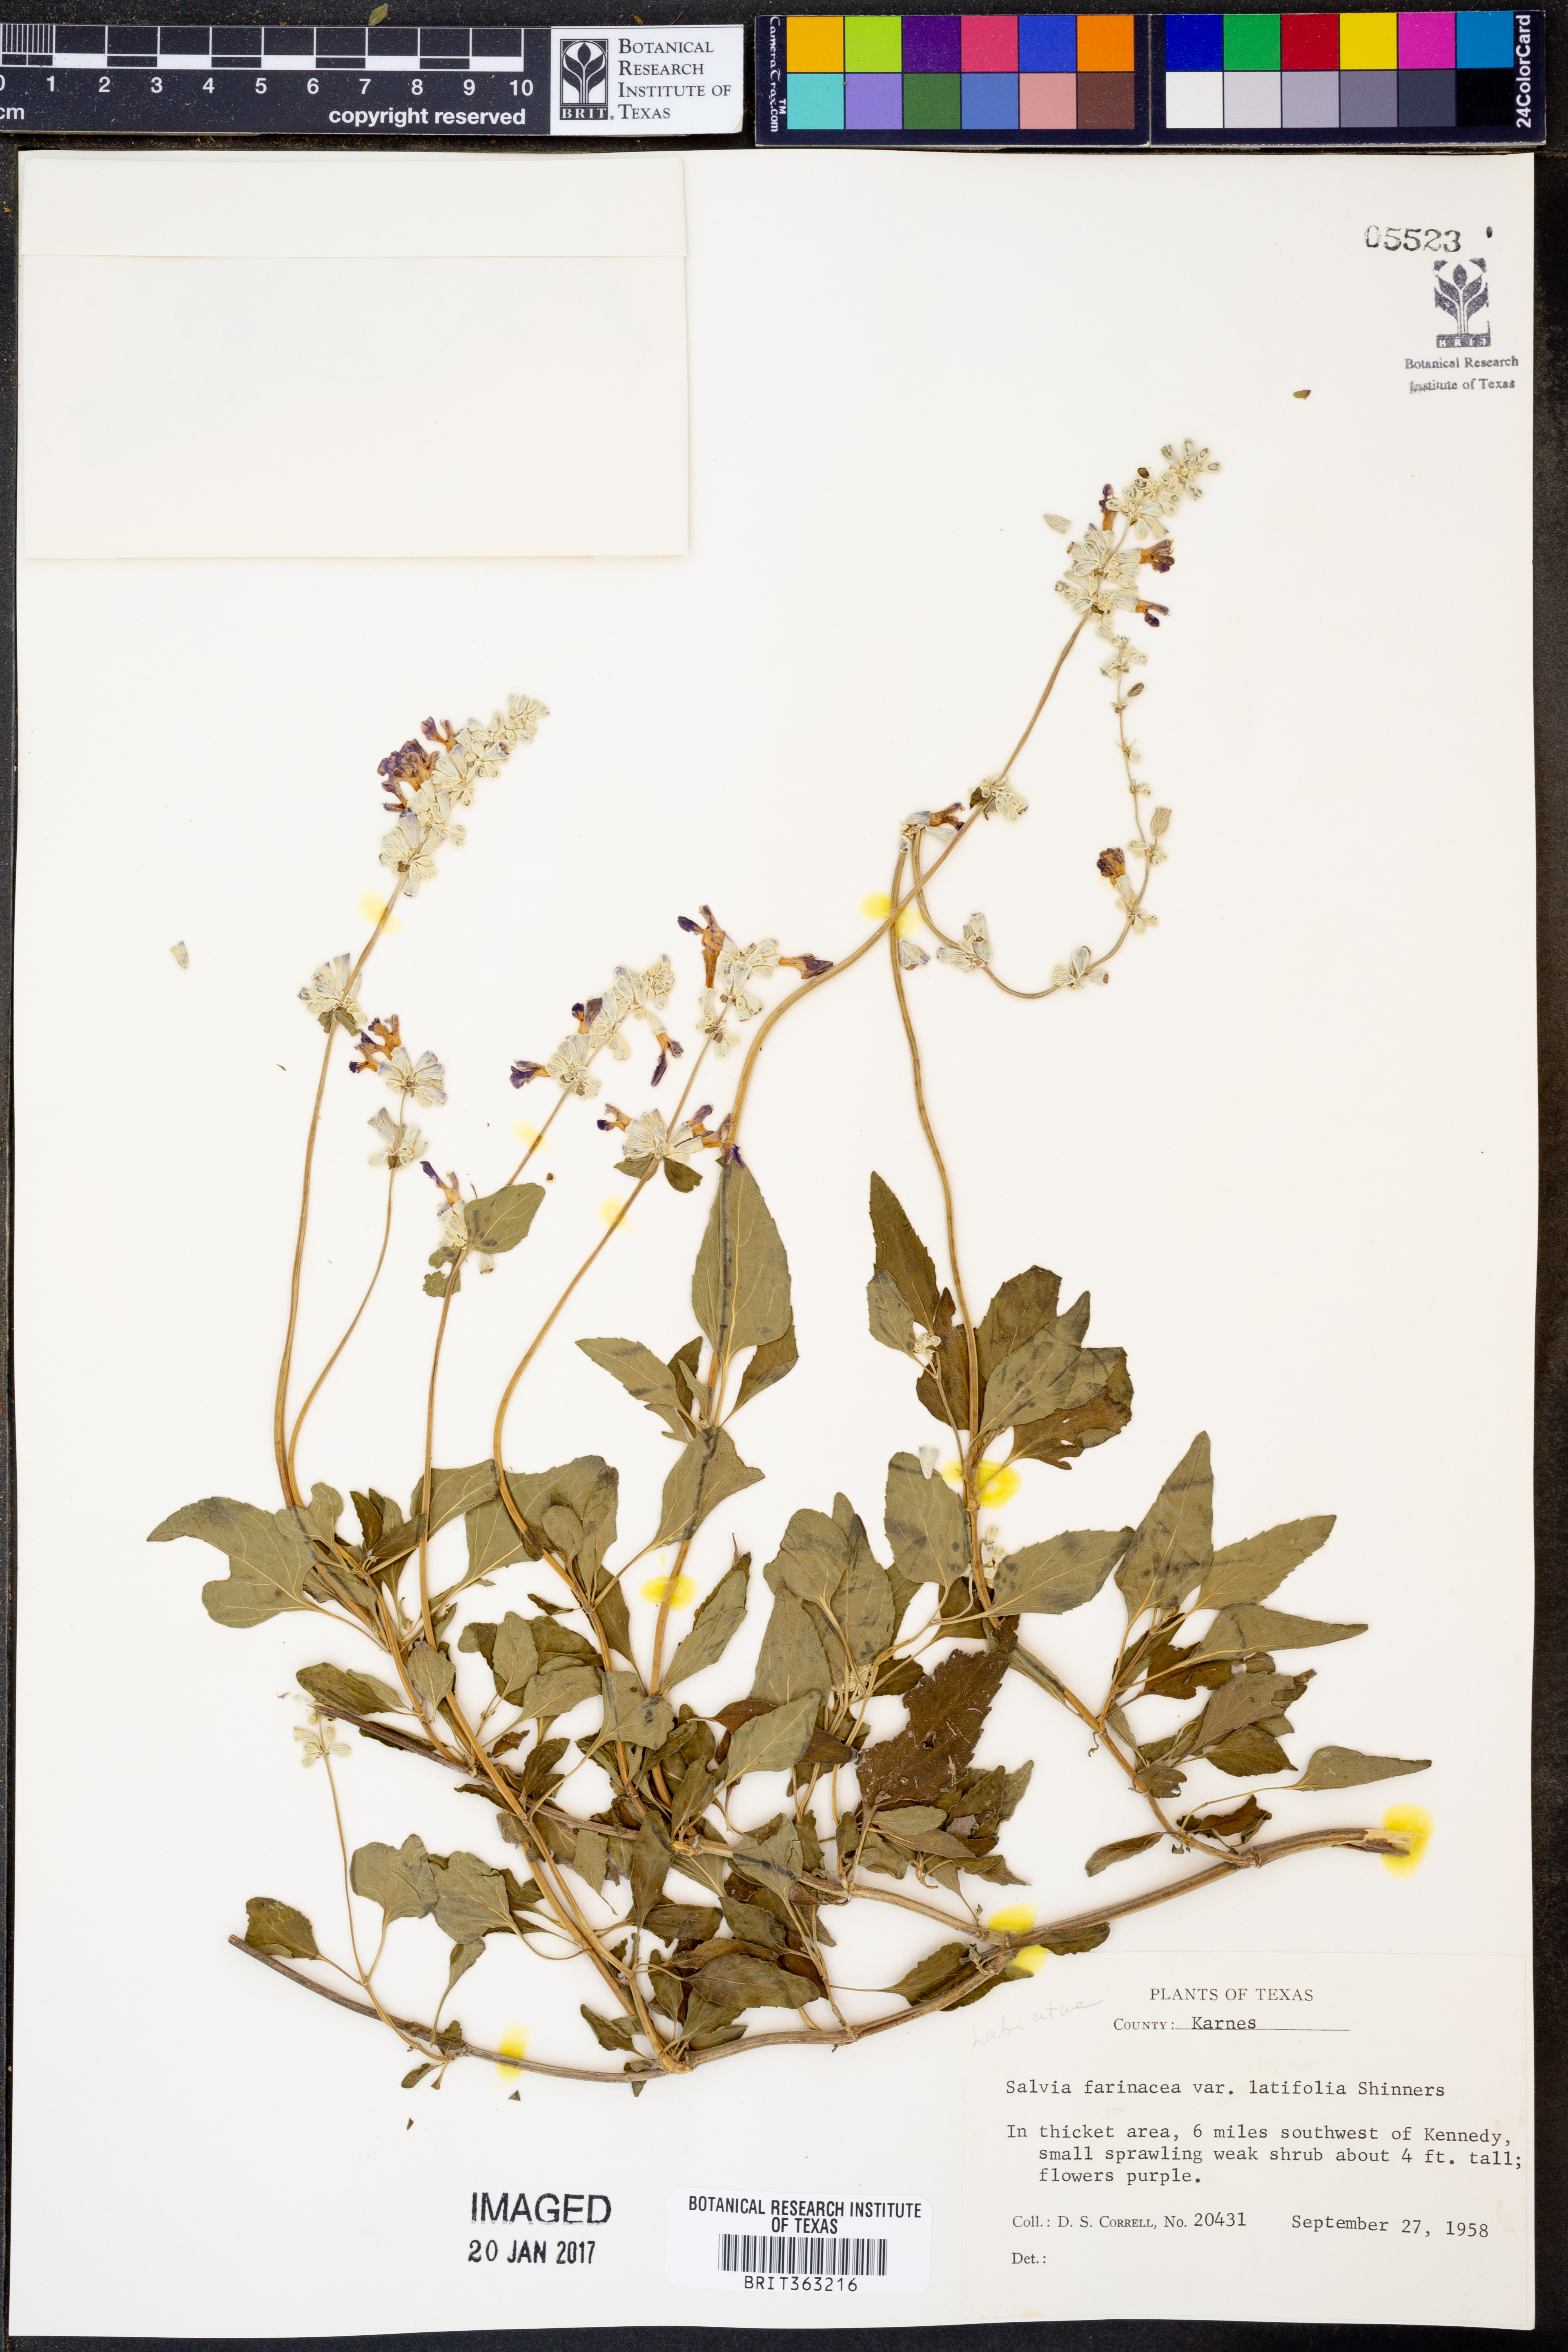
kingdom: Plantae
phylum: Tracheophyta
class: Magnoliopsida
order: Lamiales
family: Lamiaceae
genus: Salvia
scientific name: Salvia farinacea
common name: Mealy sage
